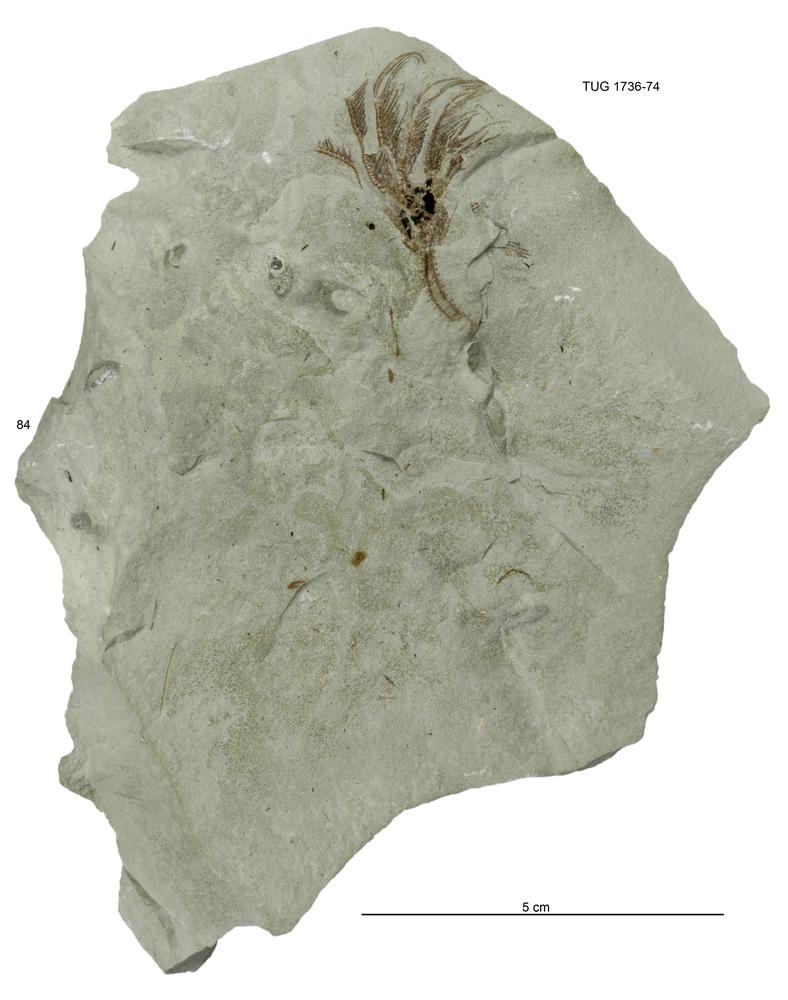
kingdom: Animalia
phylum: Echinodermata
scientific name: Echinodermata
